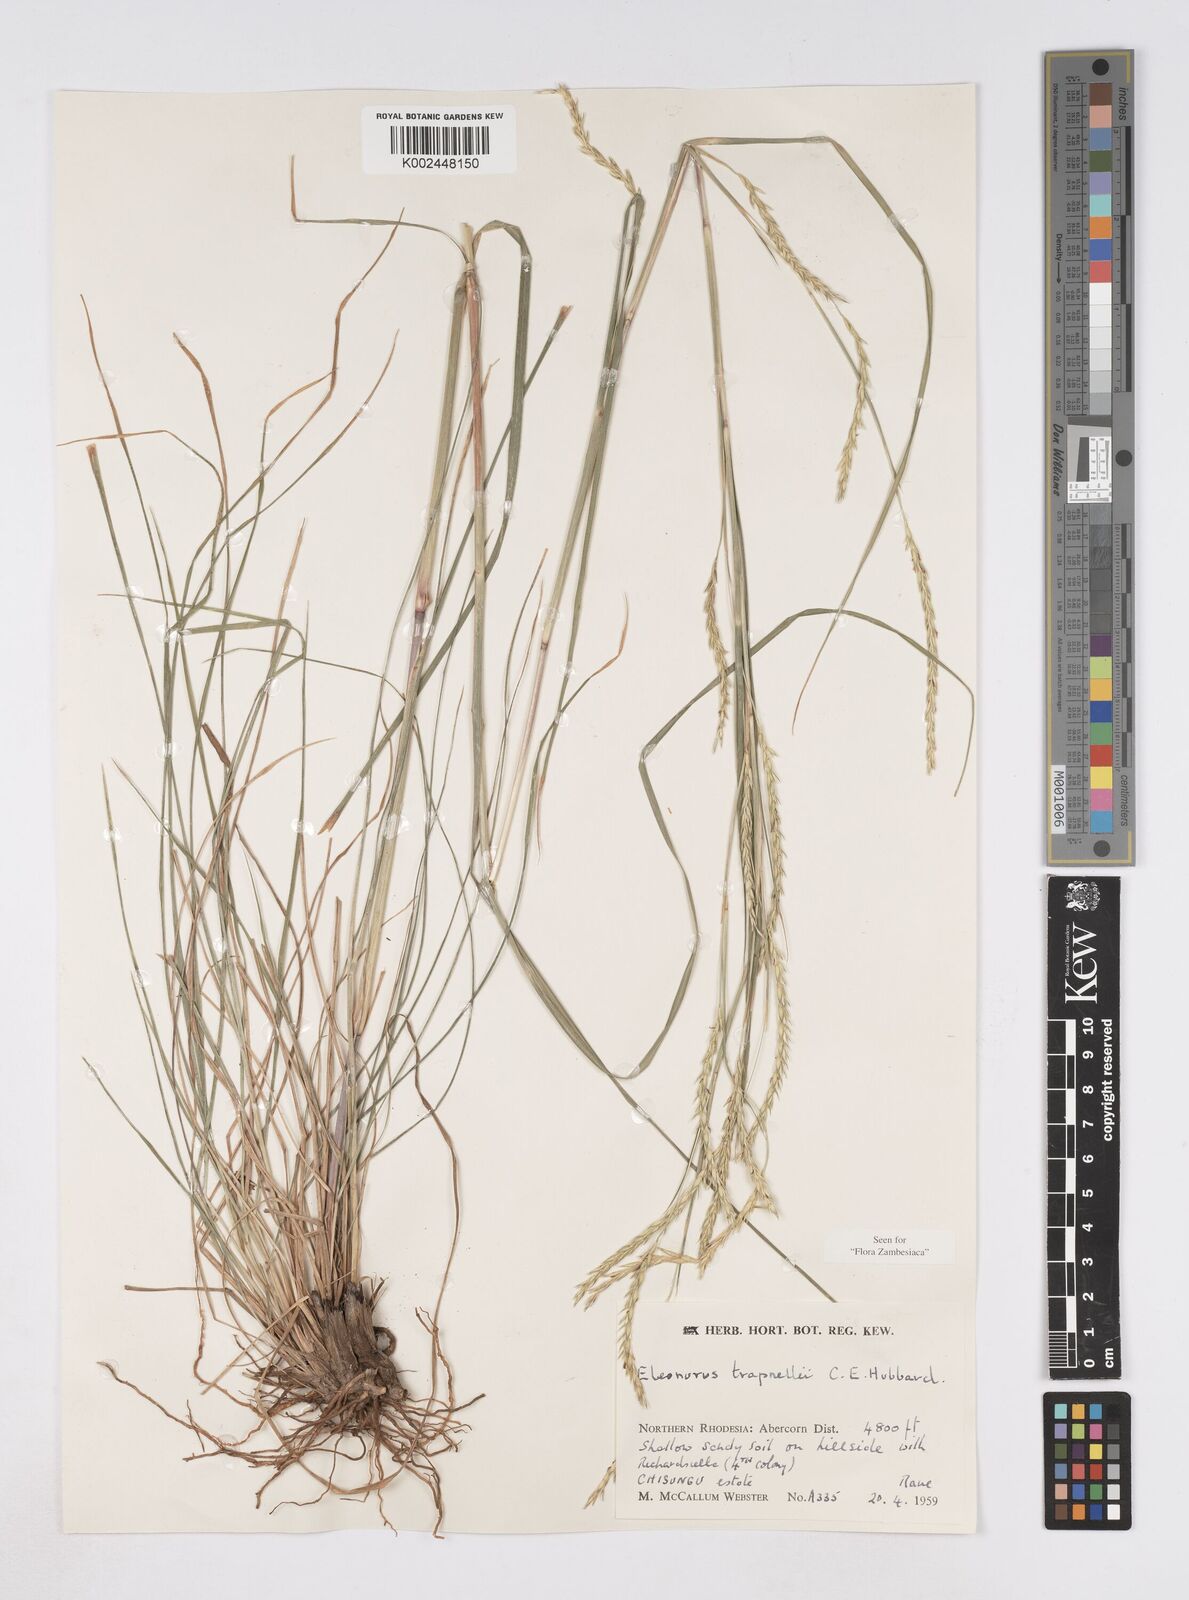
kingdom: Plantae
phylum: Tracheophyta
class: Liliopsida
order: Poales
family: Poaceae
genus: Elionurus
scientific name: Elionurus tripsacoides
